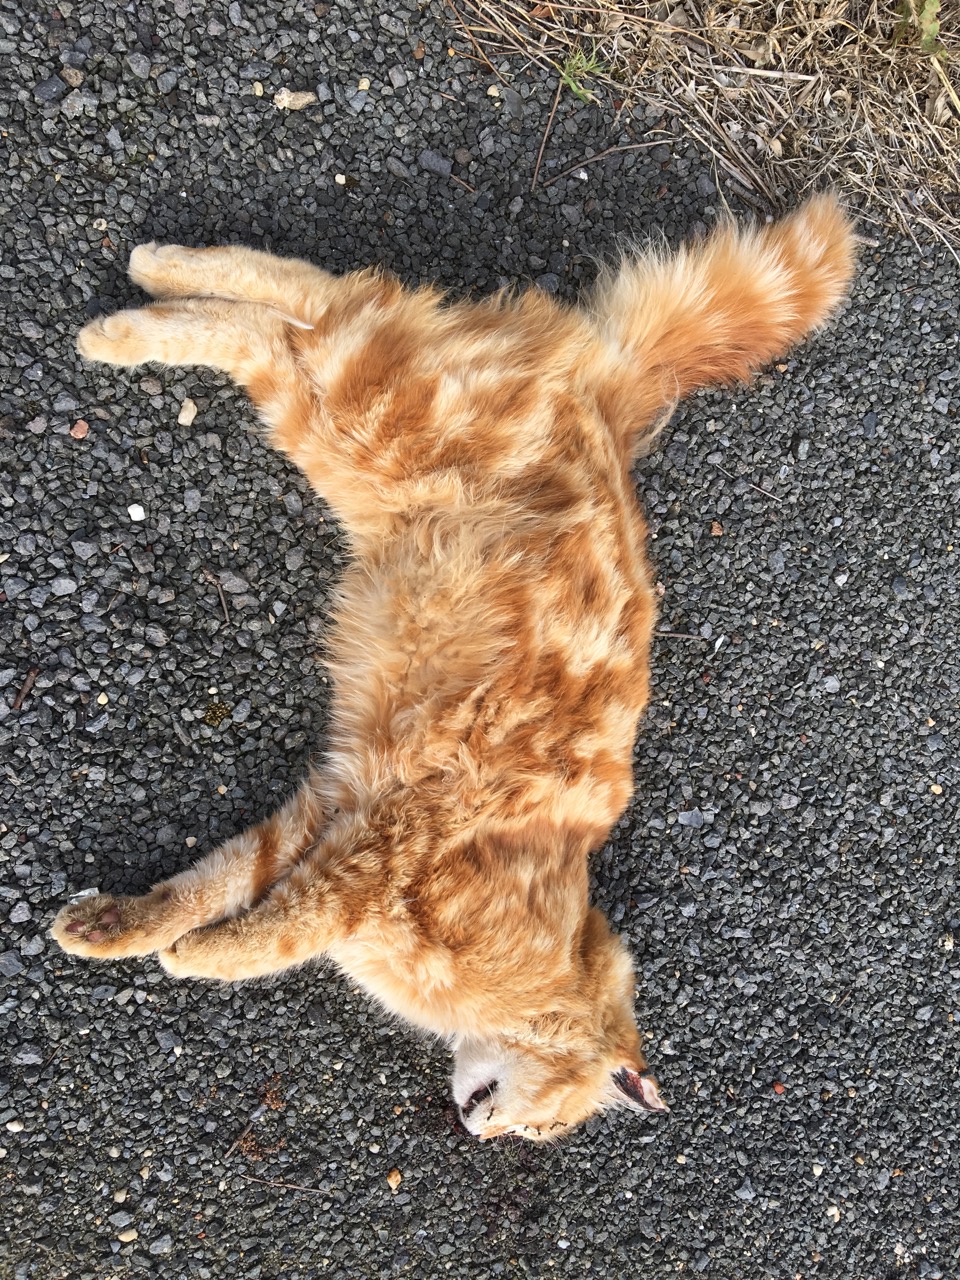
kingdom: Animalia
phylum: Chordata
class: Mammalia
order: Carnivora
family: Felidae
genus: Felis
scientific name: Felis catus
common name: Domestic cat
